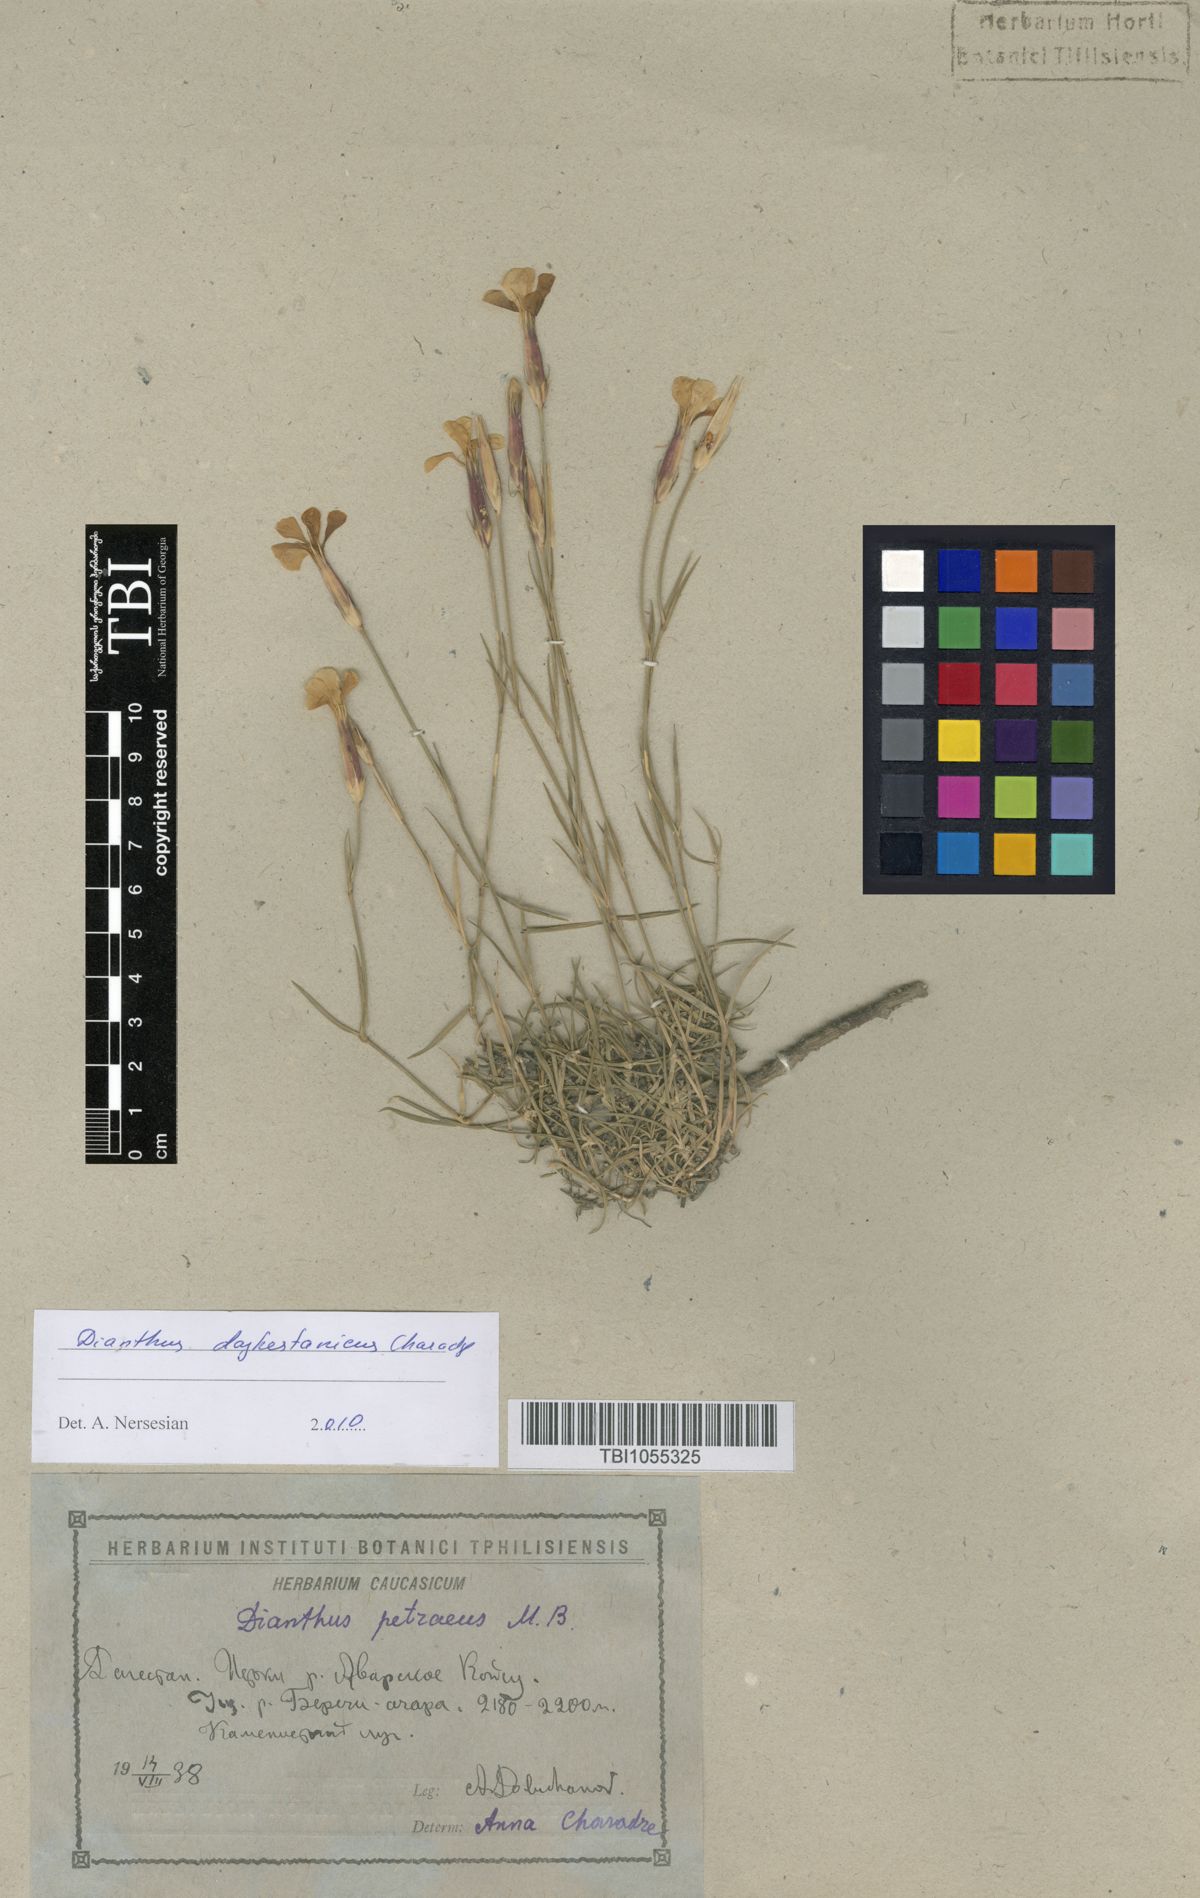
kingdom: Plantae
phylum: Tracheophyta
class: Magnoliopsida
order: Caryophyllales
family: Caryophyllaceae
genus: Dianthus
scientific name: Dianthus cretaceus
